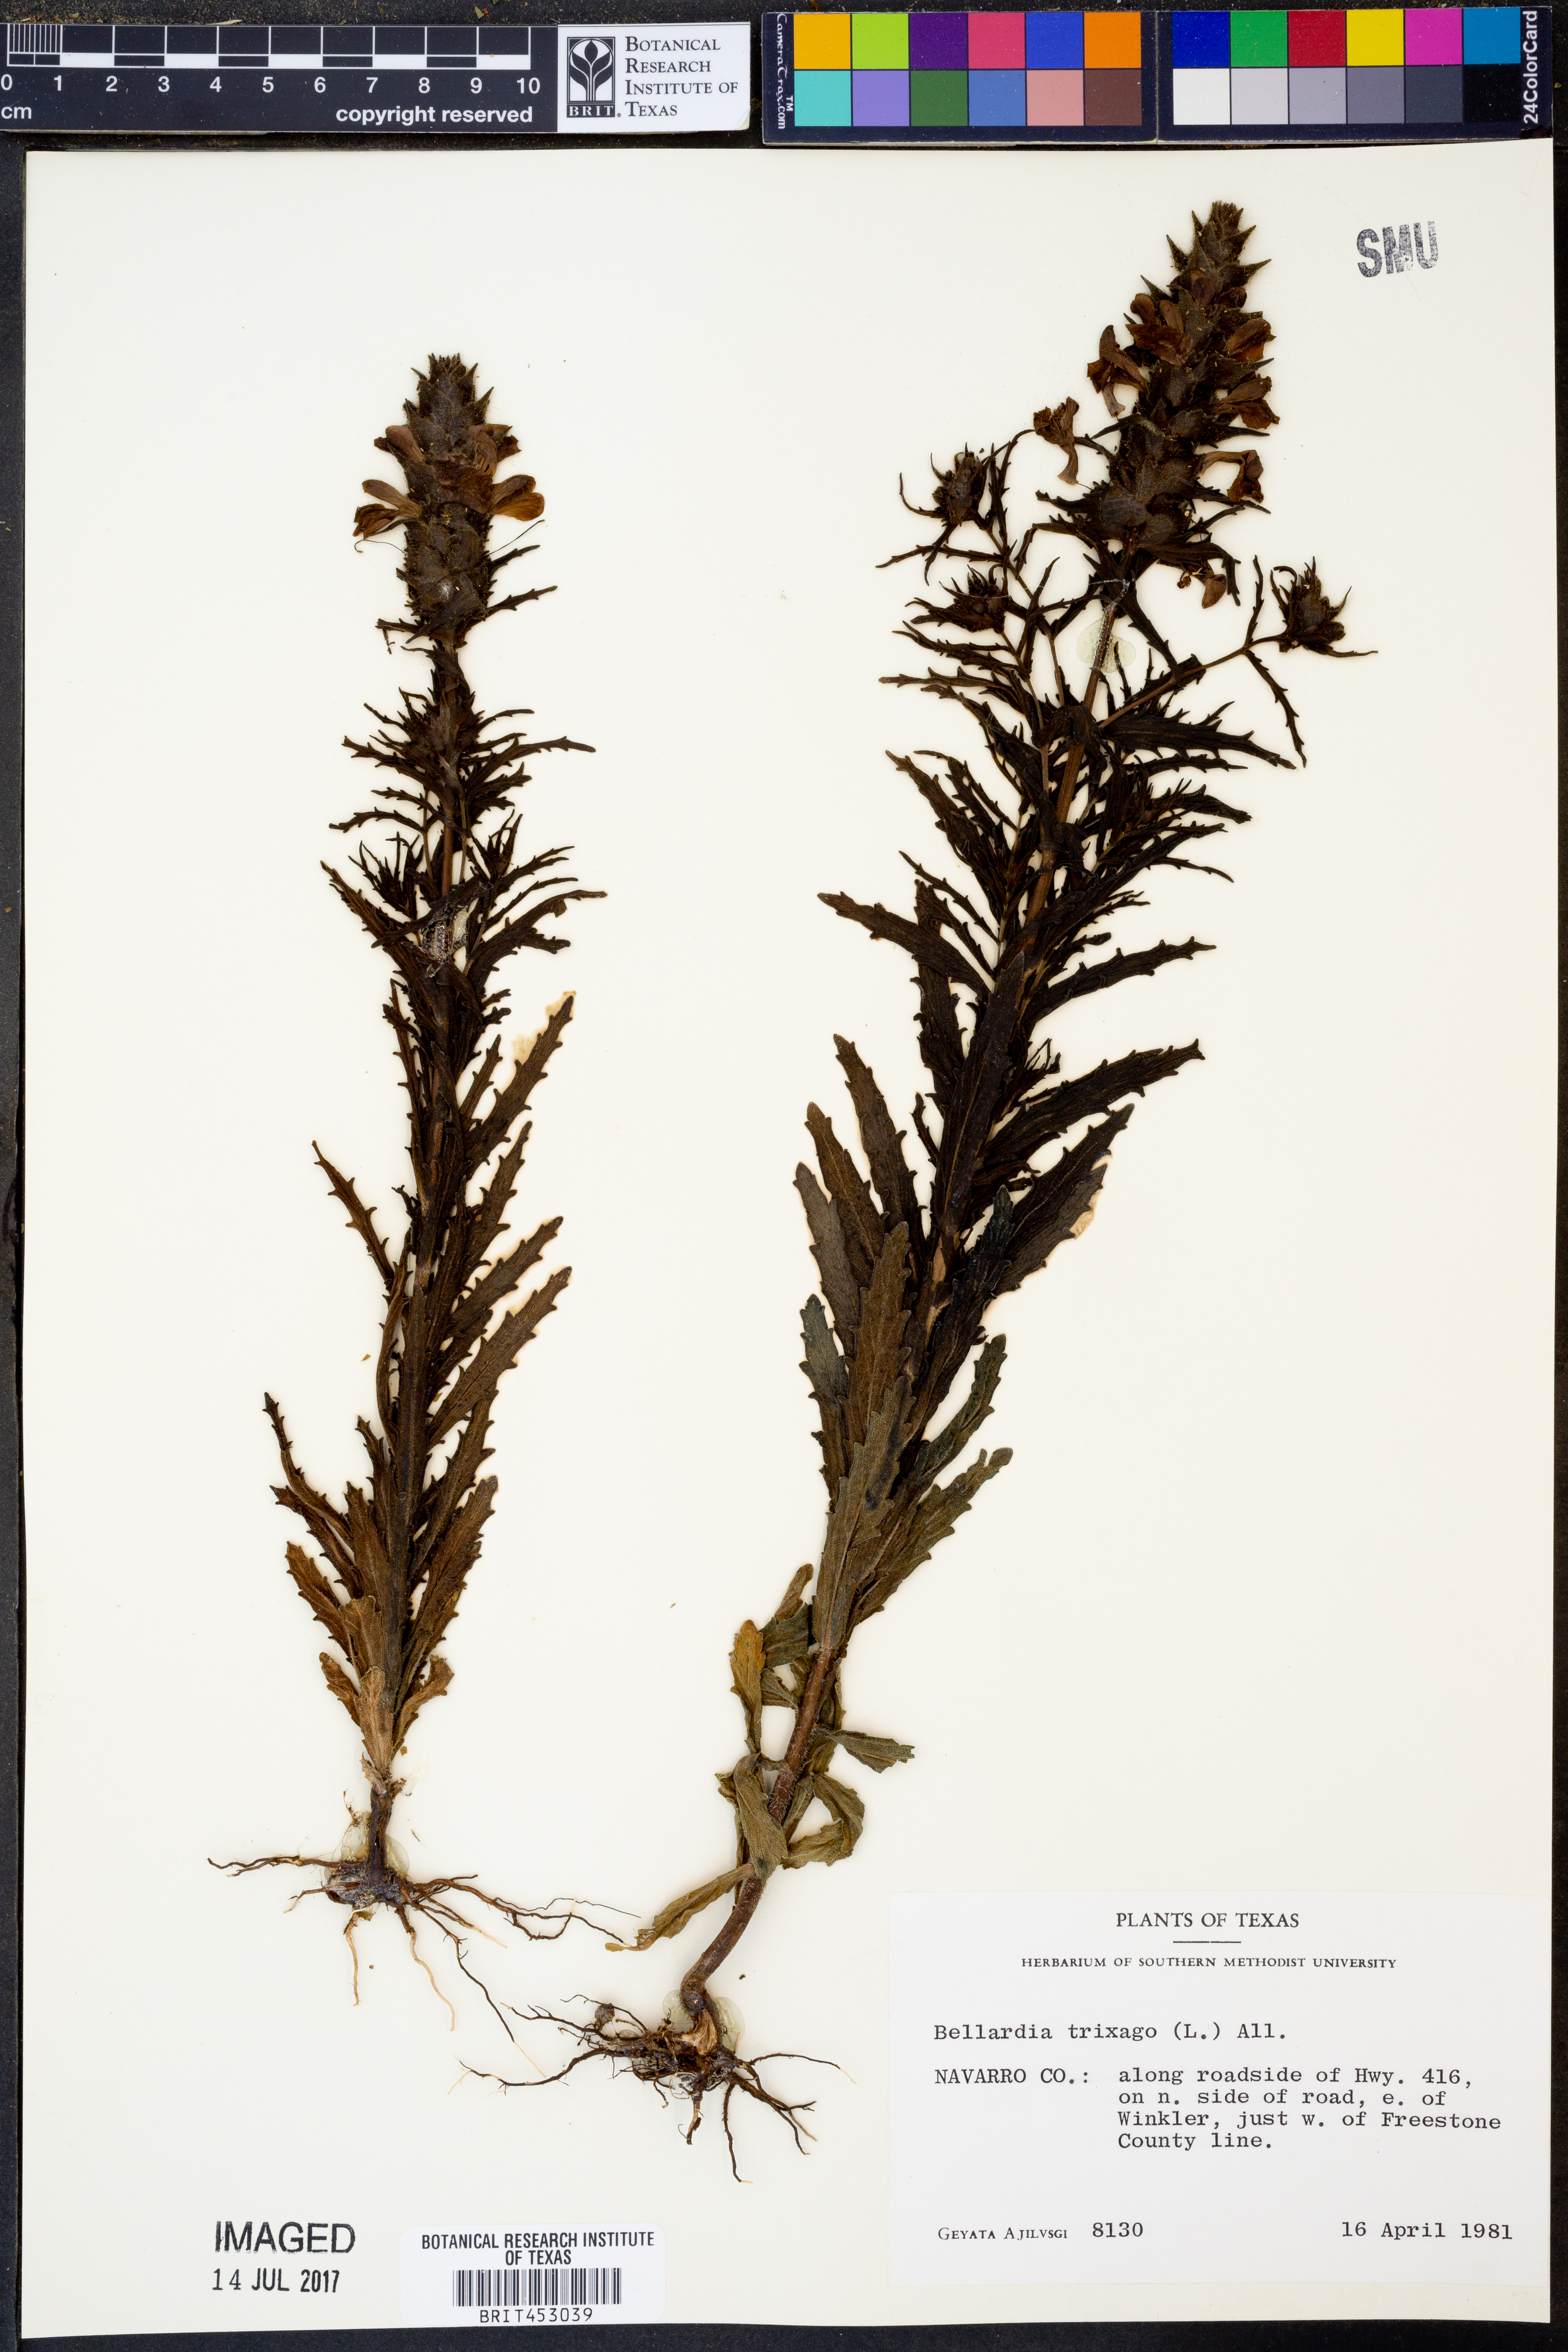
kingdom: Plantae
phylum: Tracheophyta
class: Magnoliopsida
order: Lamiales
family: Orobanchaceae
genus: Bellardia
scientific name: Bellardia trixago
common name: Mediterranean lineseed
